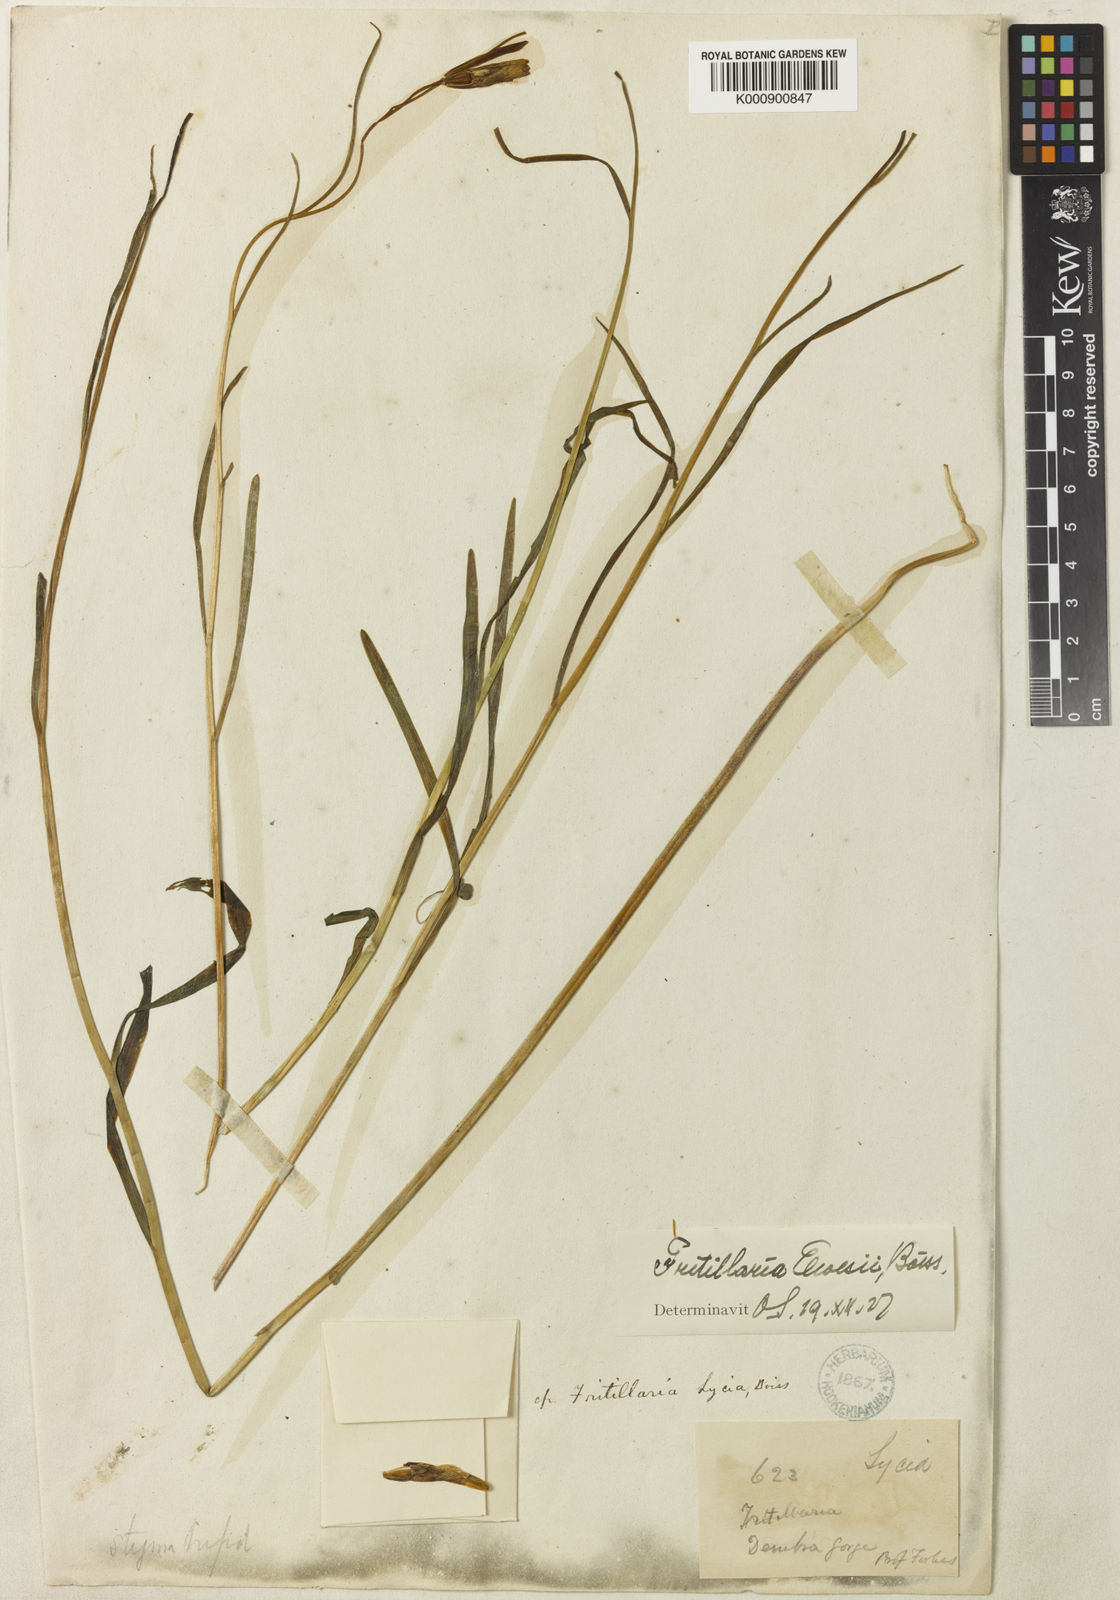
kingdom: Plantae
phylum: Tracheophyta
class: Liliopsida
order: Liliales
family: Liliaceae
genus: Fritillaria
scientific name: Fritillaria elwesii
